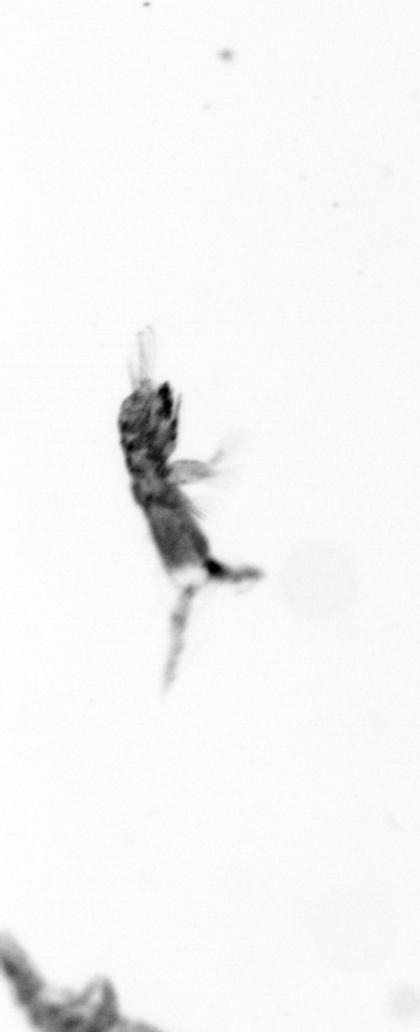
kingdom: Animalia
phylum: Arthropoda
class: Copepoda
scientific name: Copepoda
